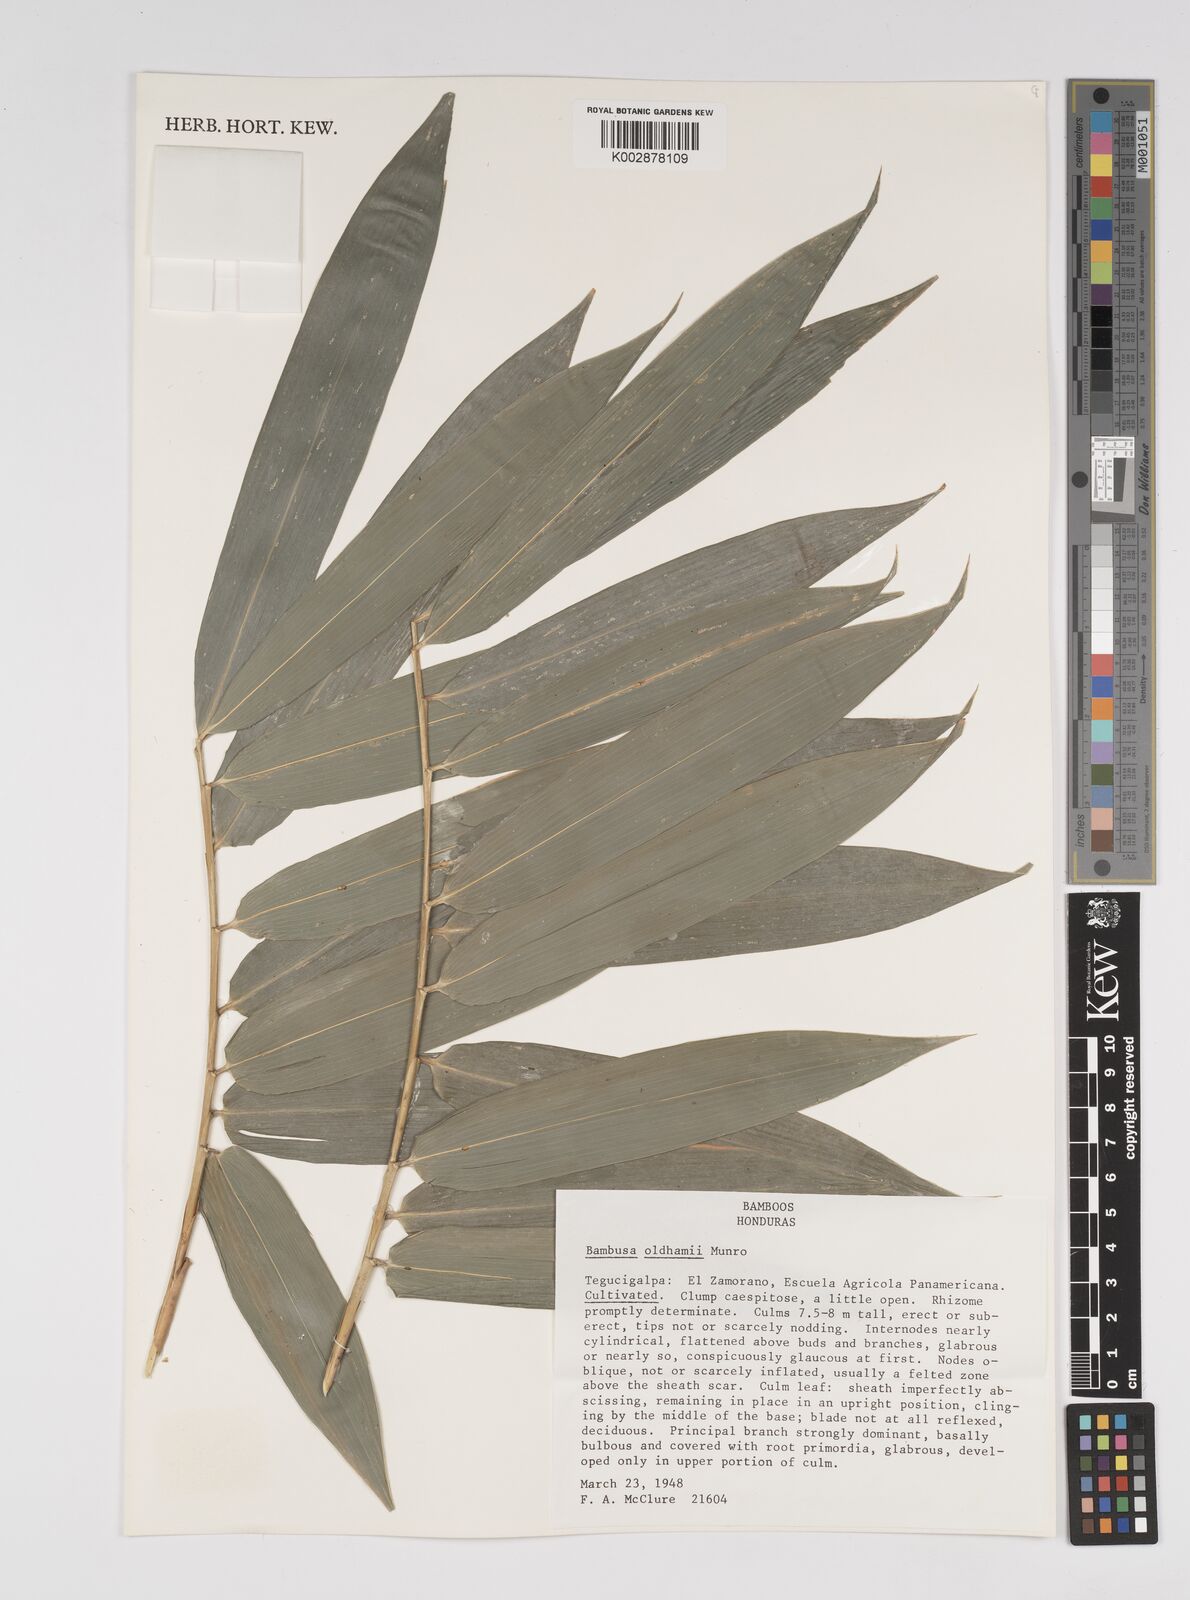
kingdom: Plantae
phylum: Tracheophyta
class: Liliopsida
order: Poales
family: Poaceae
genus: Bambusa
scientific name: Bambusa oldhamii
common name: Giant timber bamboo
